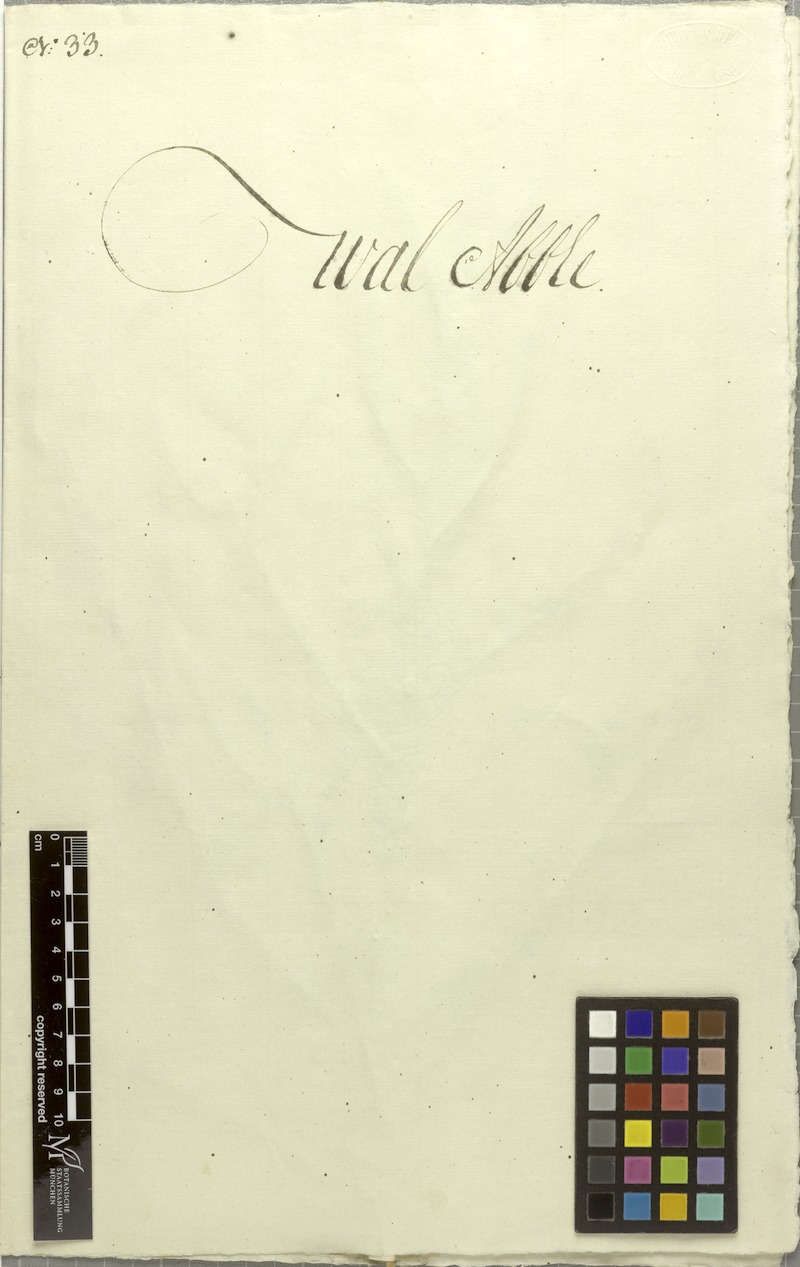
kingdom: Plantae
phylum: Tracheophyta
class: Magnoliopsida
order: Brassicales
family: Cleomaceae
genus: Arivela
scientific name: Arivela viscosa
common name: Asian spiderflower
